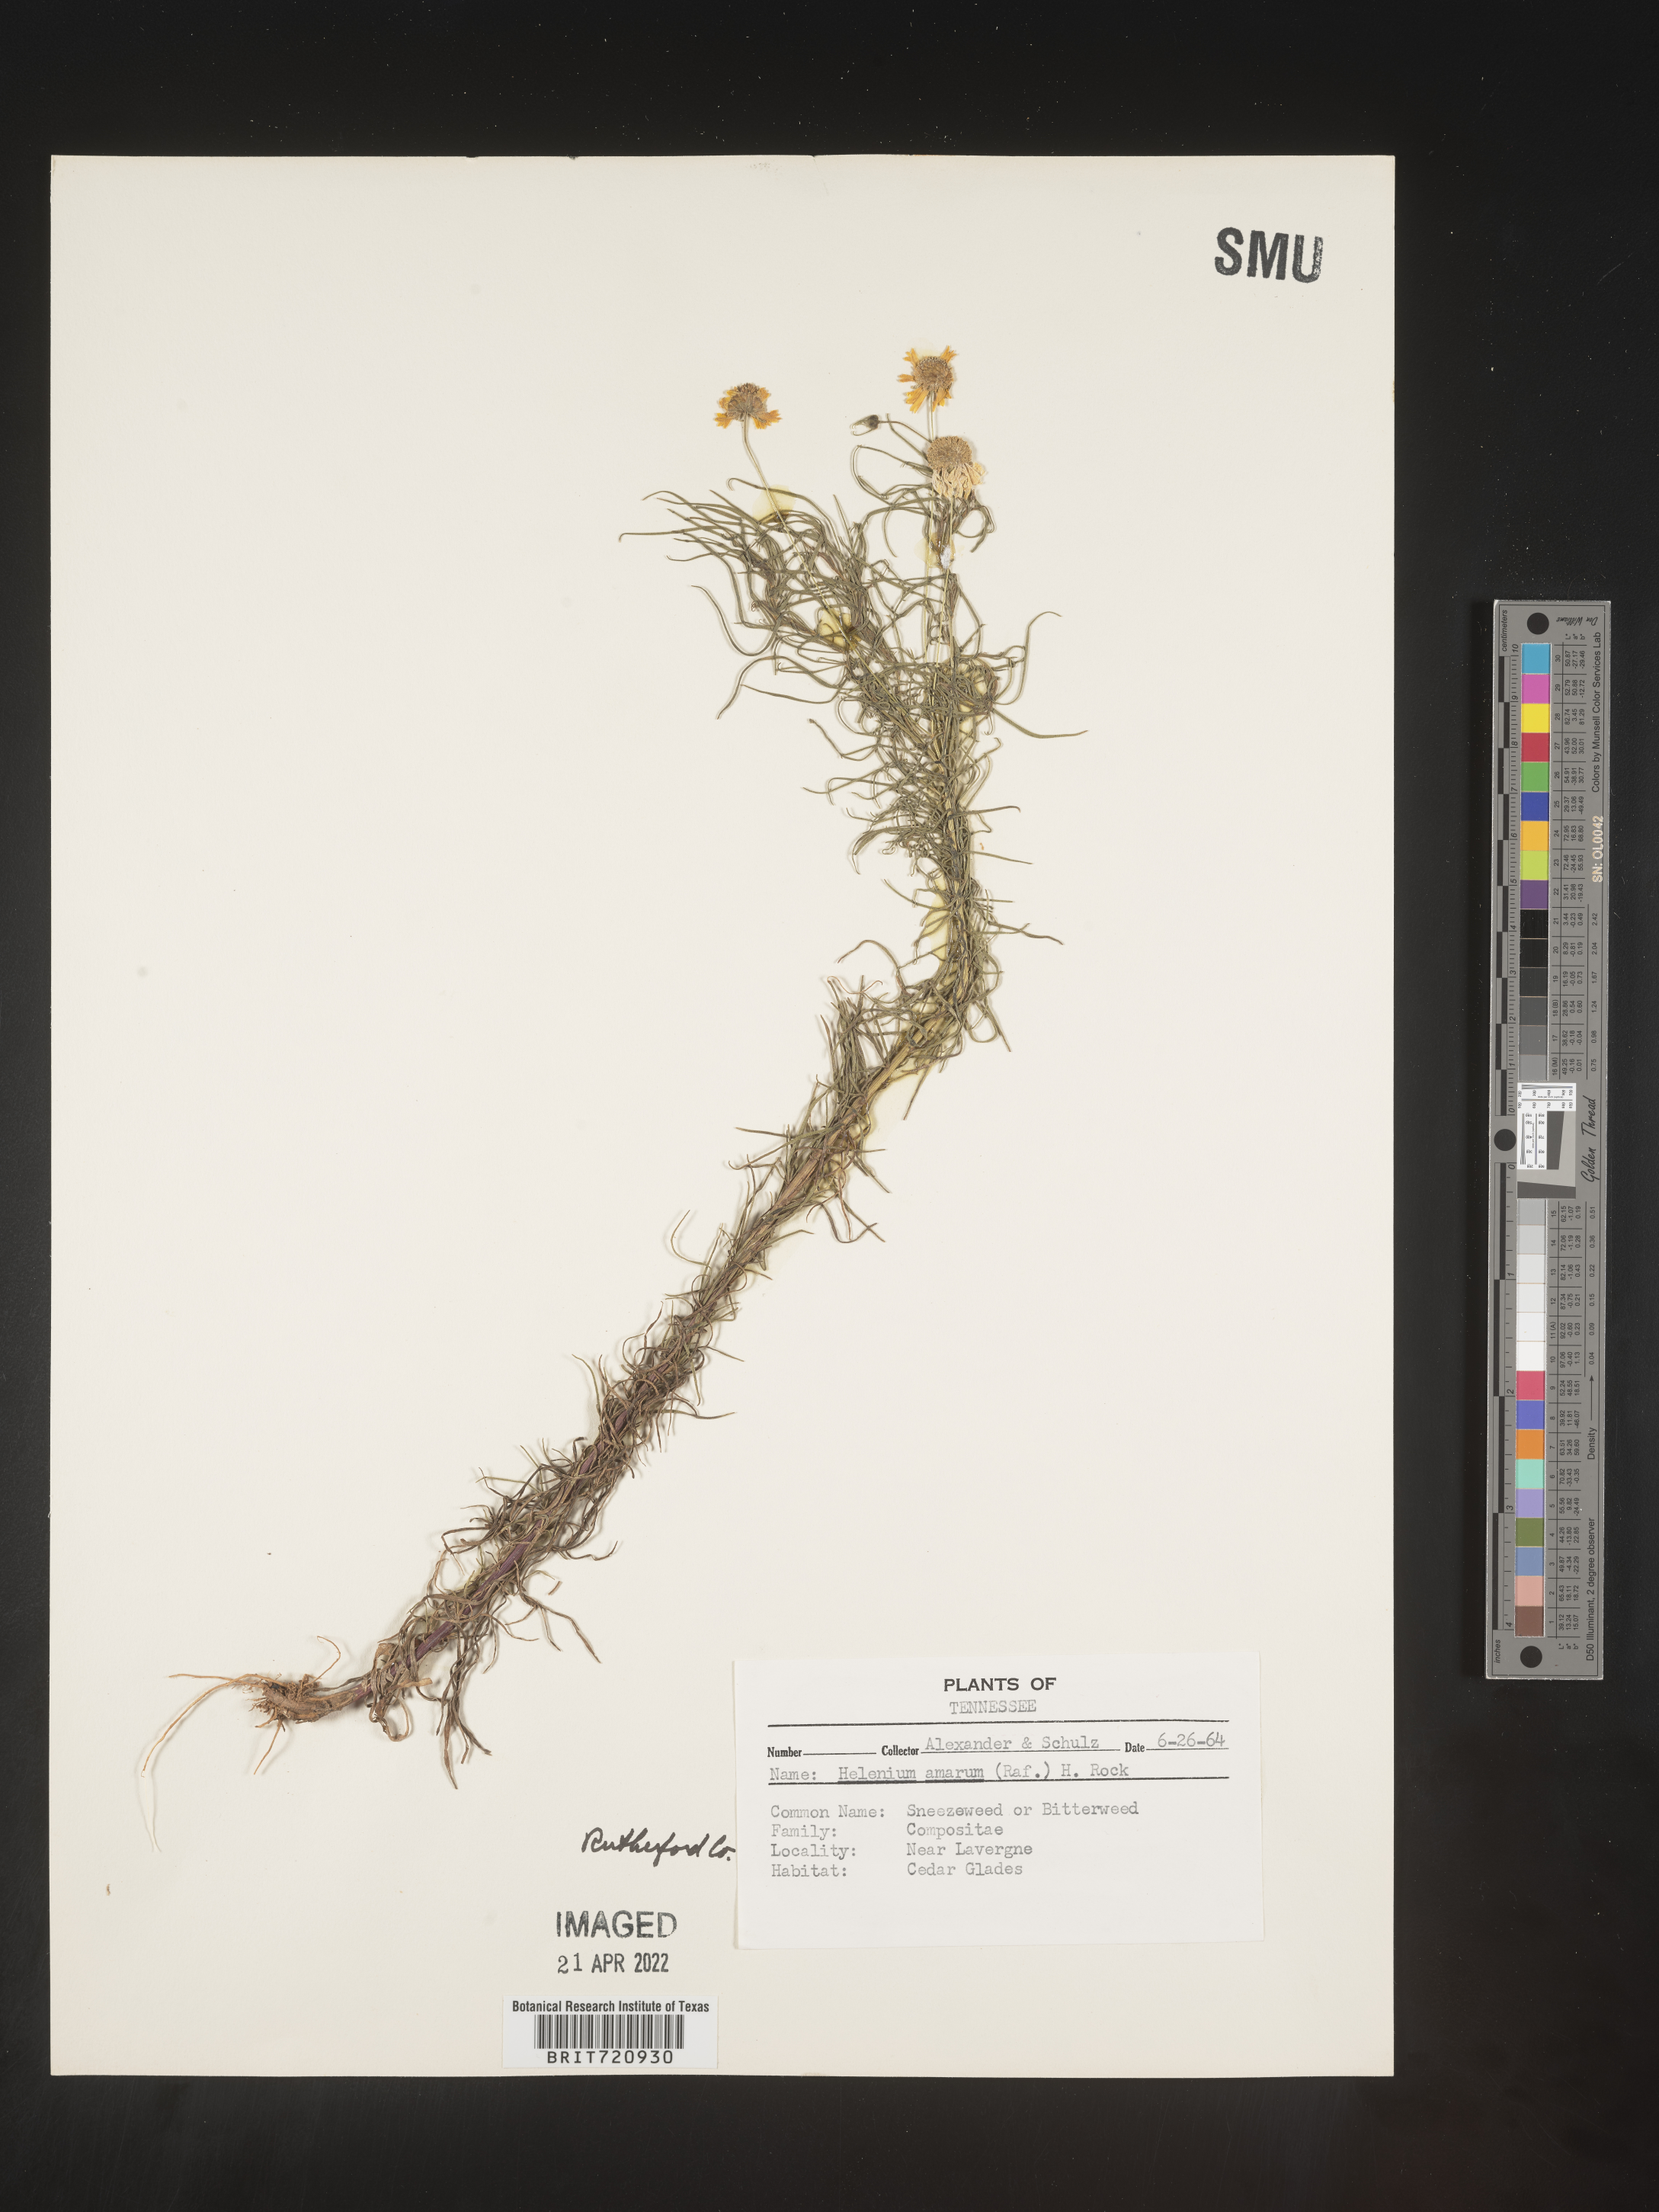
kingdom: Plantae
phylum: Tracheophyta
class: Magnoliopsida
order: Asterales
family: Asteraceae
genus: Helenium
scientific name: Helenium amarum
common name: Bitter sneezeweed
